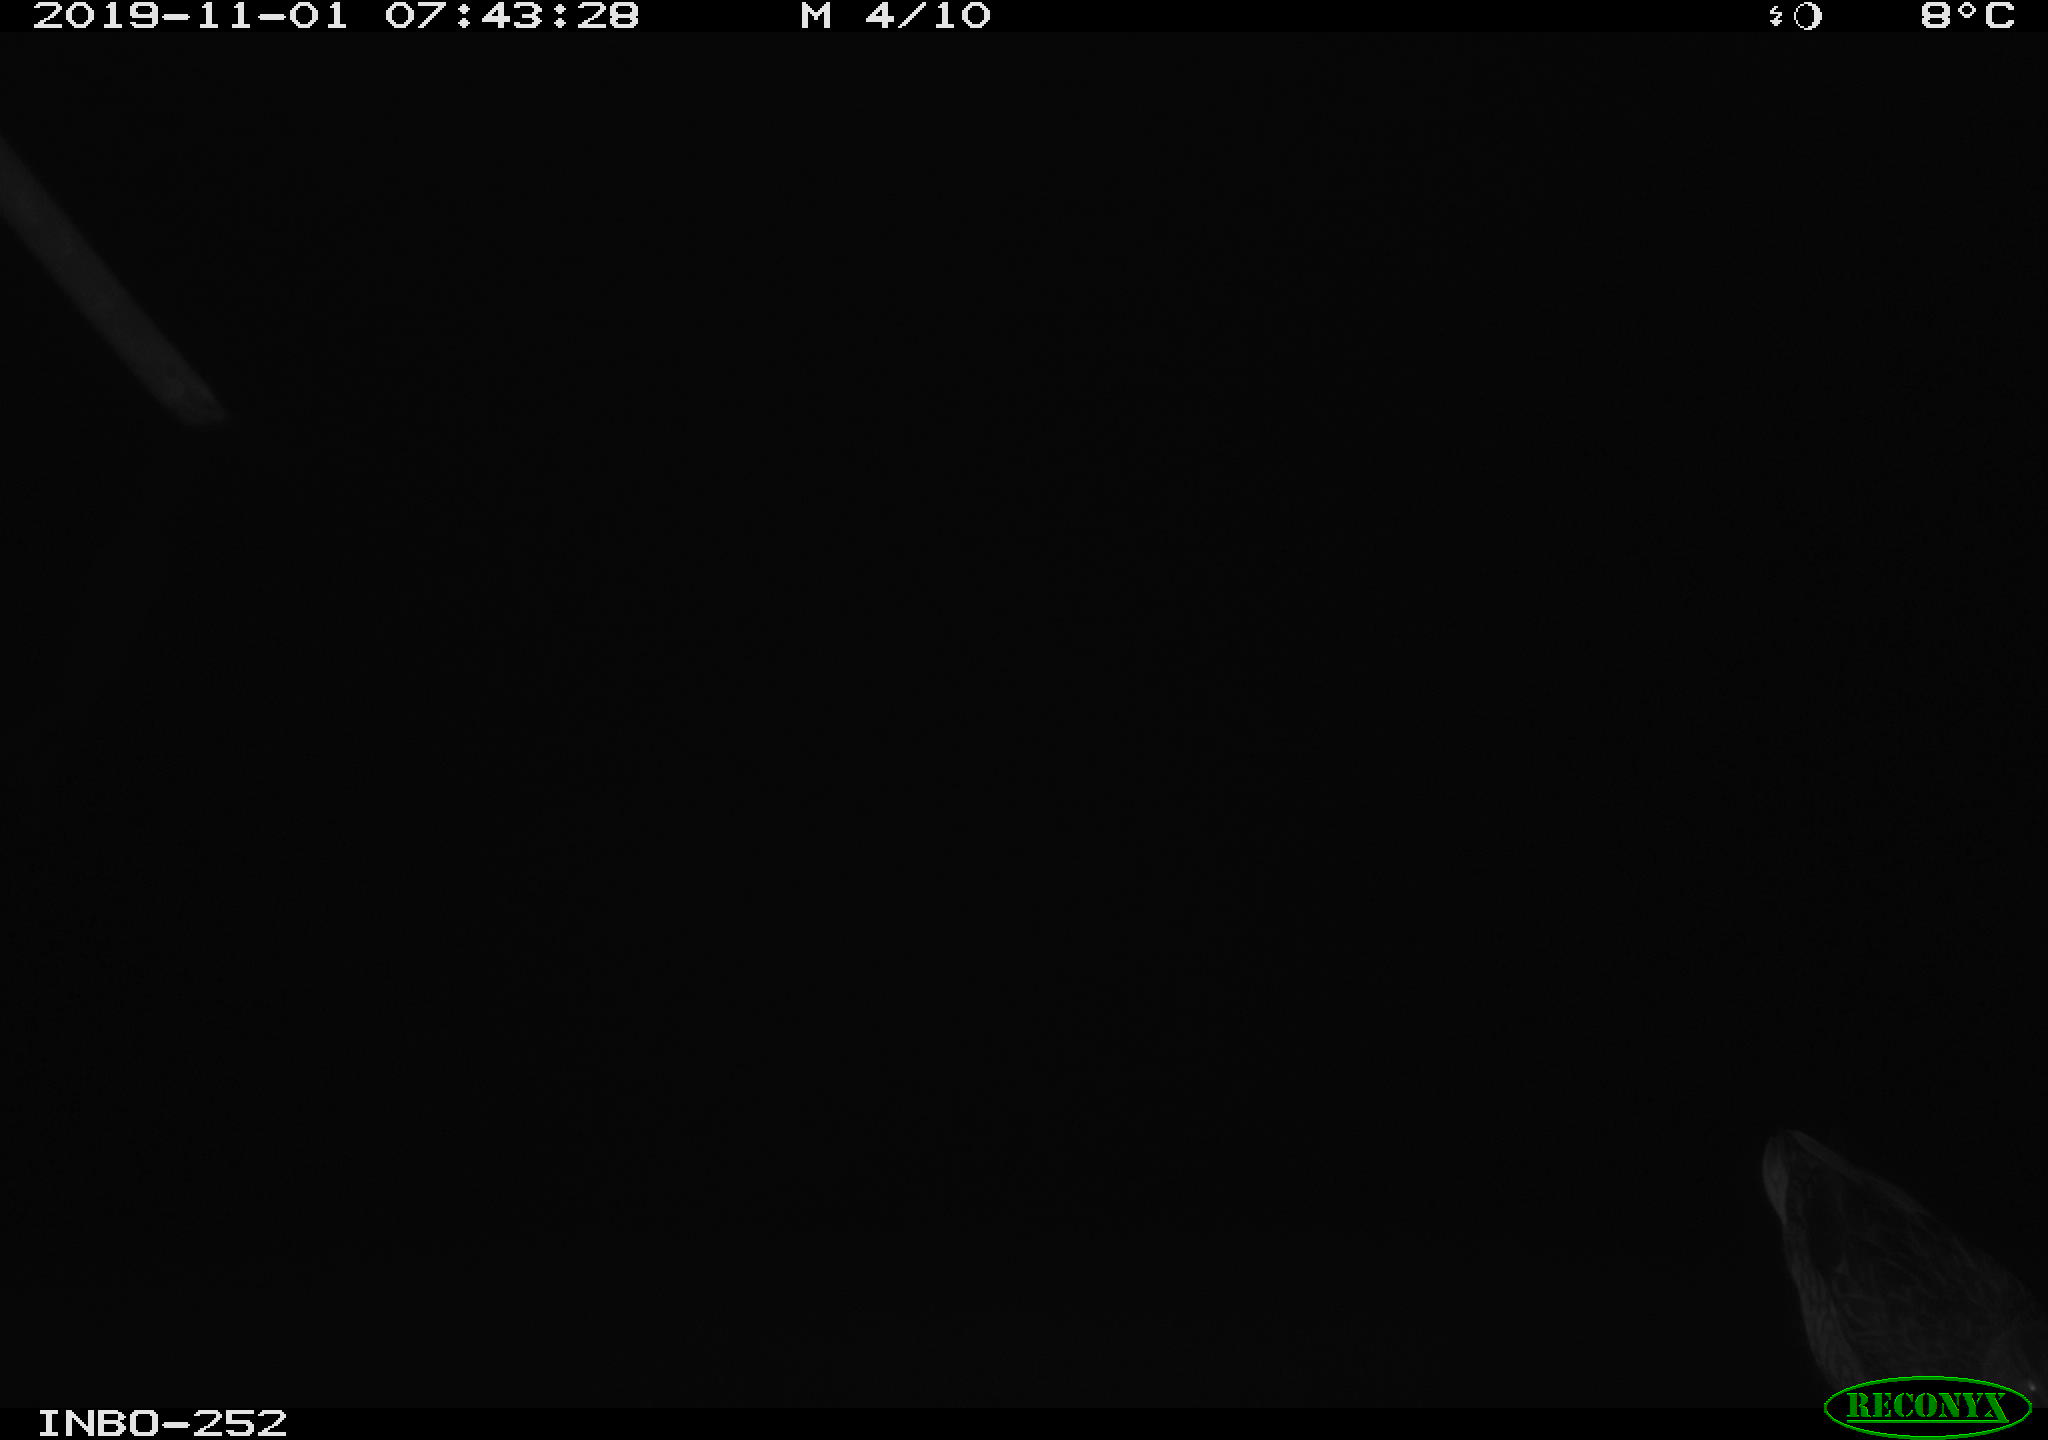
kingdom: Animalia
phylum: Chordata
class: Aves
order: Anseriformes
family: Anatidae
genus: Anas
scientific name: Anas platyrhynchos
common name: Mallard
